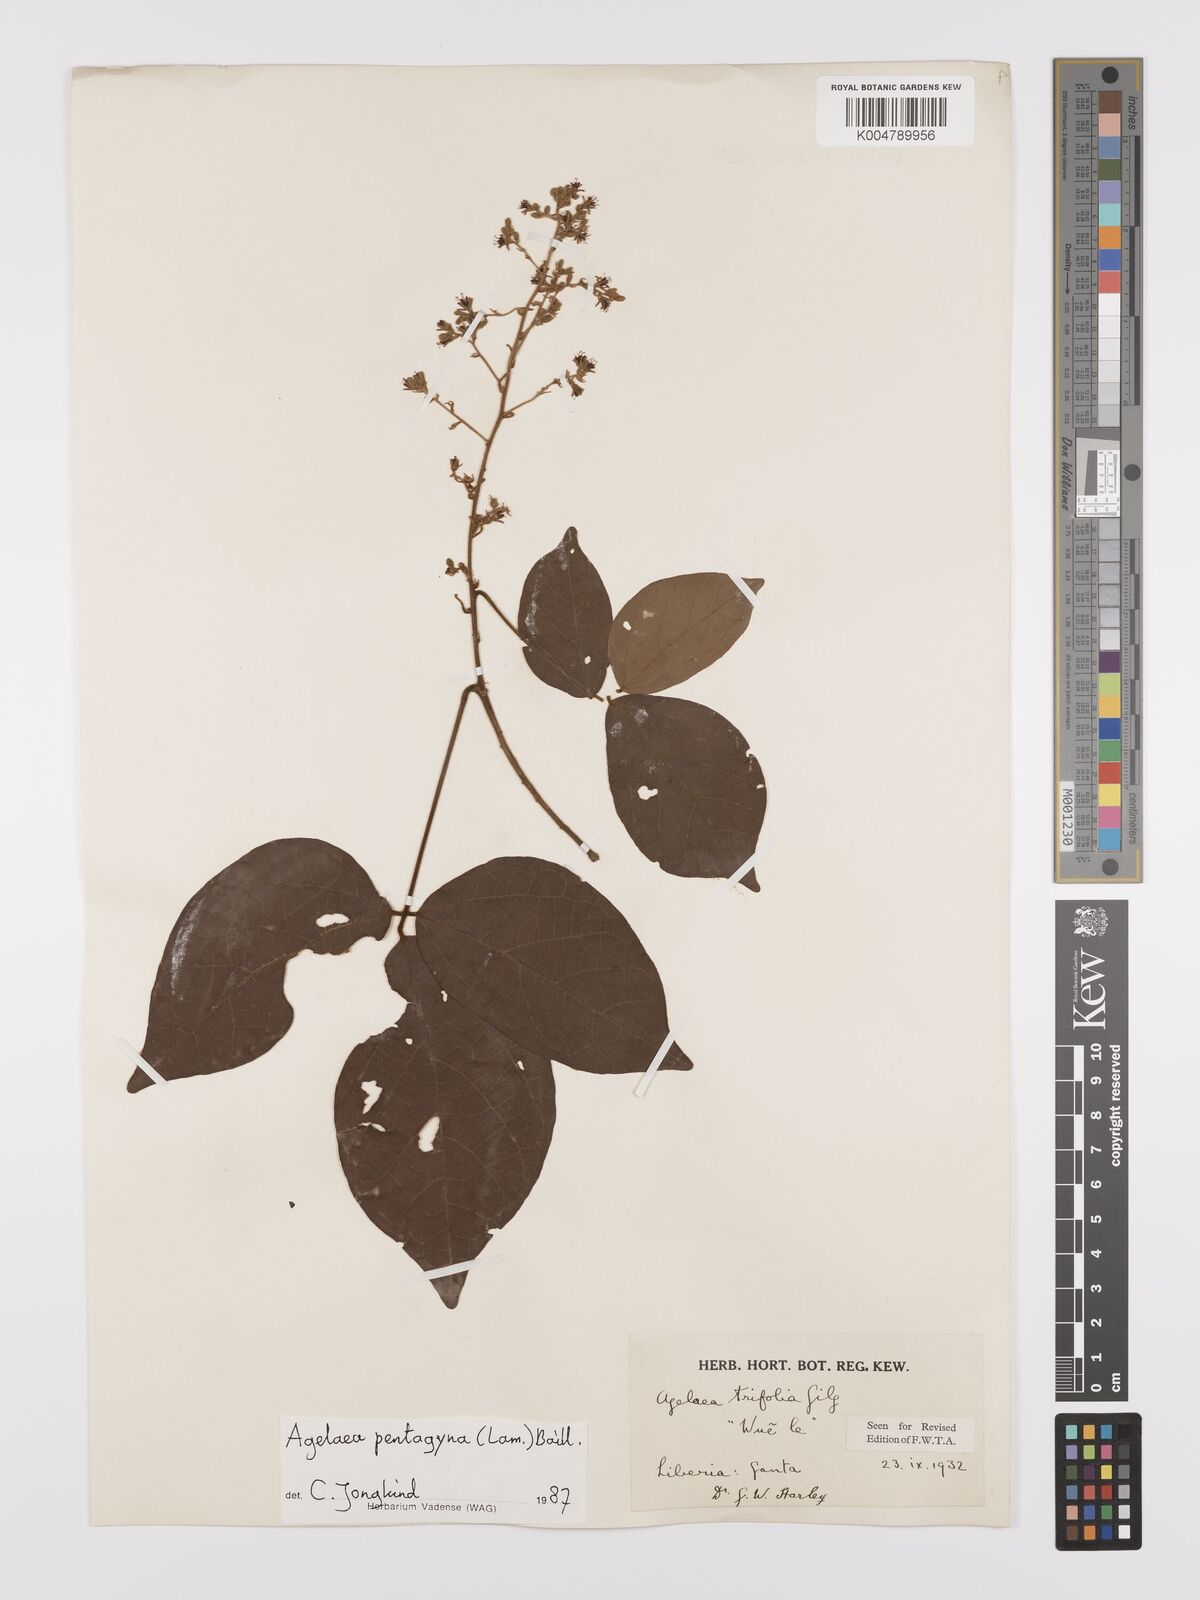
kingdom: Plantae
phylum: Tracheophyta
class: Magnoliopsida
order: Oxalidales
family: Connaraceae
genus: Agelaea
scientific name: Agelaea pentagyna
